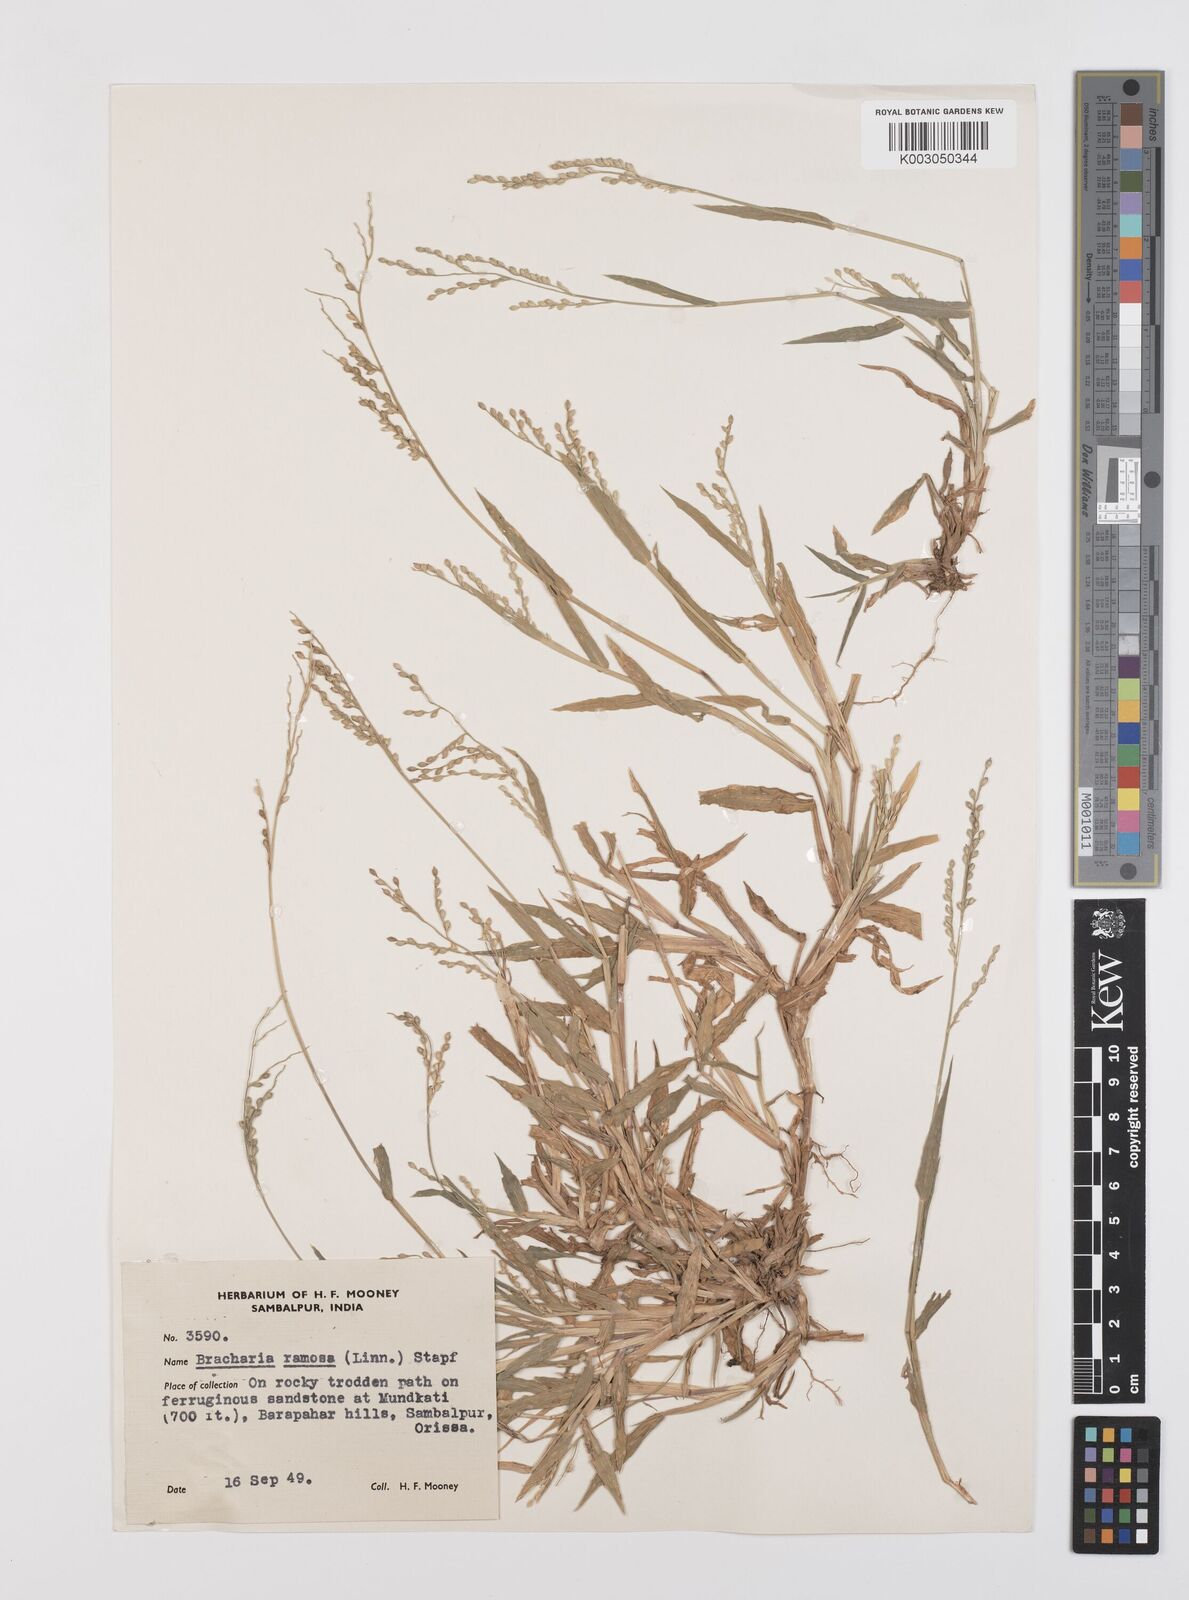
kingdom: Plantae
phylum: Tracheophyta
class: Liliopsida
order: Poales
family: Poaceae
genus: Urochloa
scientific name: Urochloa ramosa
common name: Browntop millet
